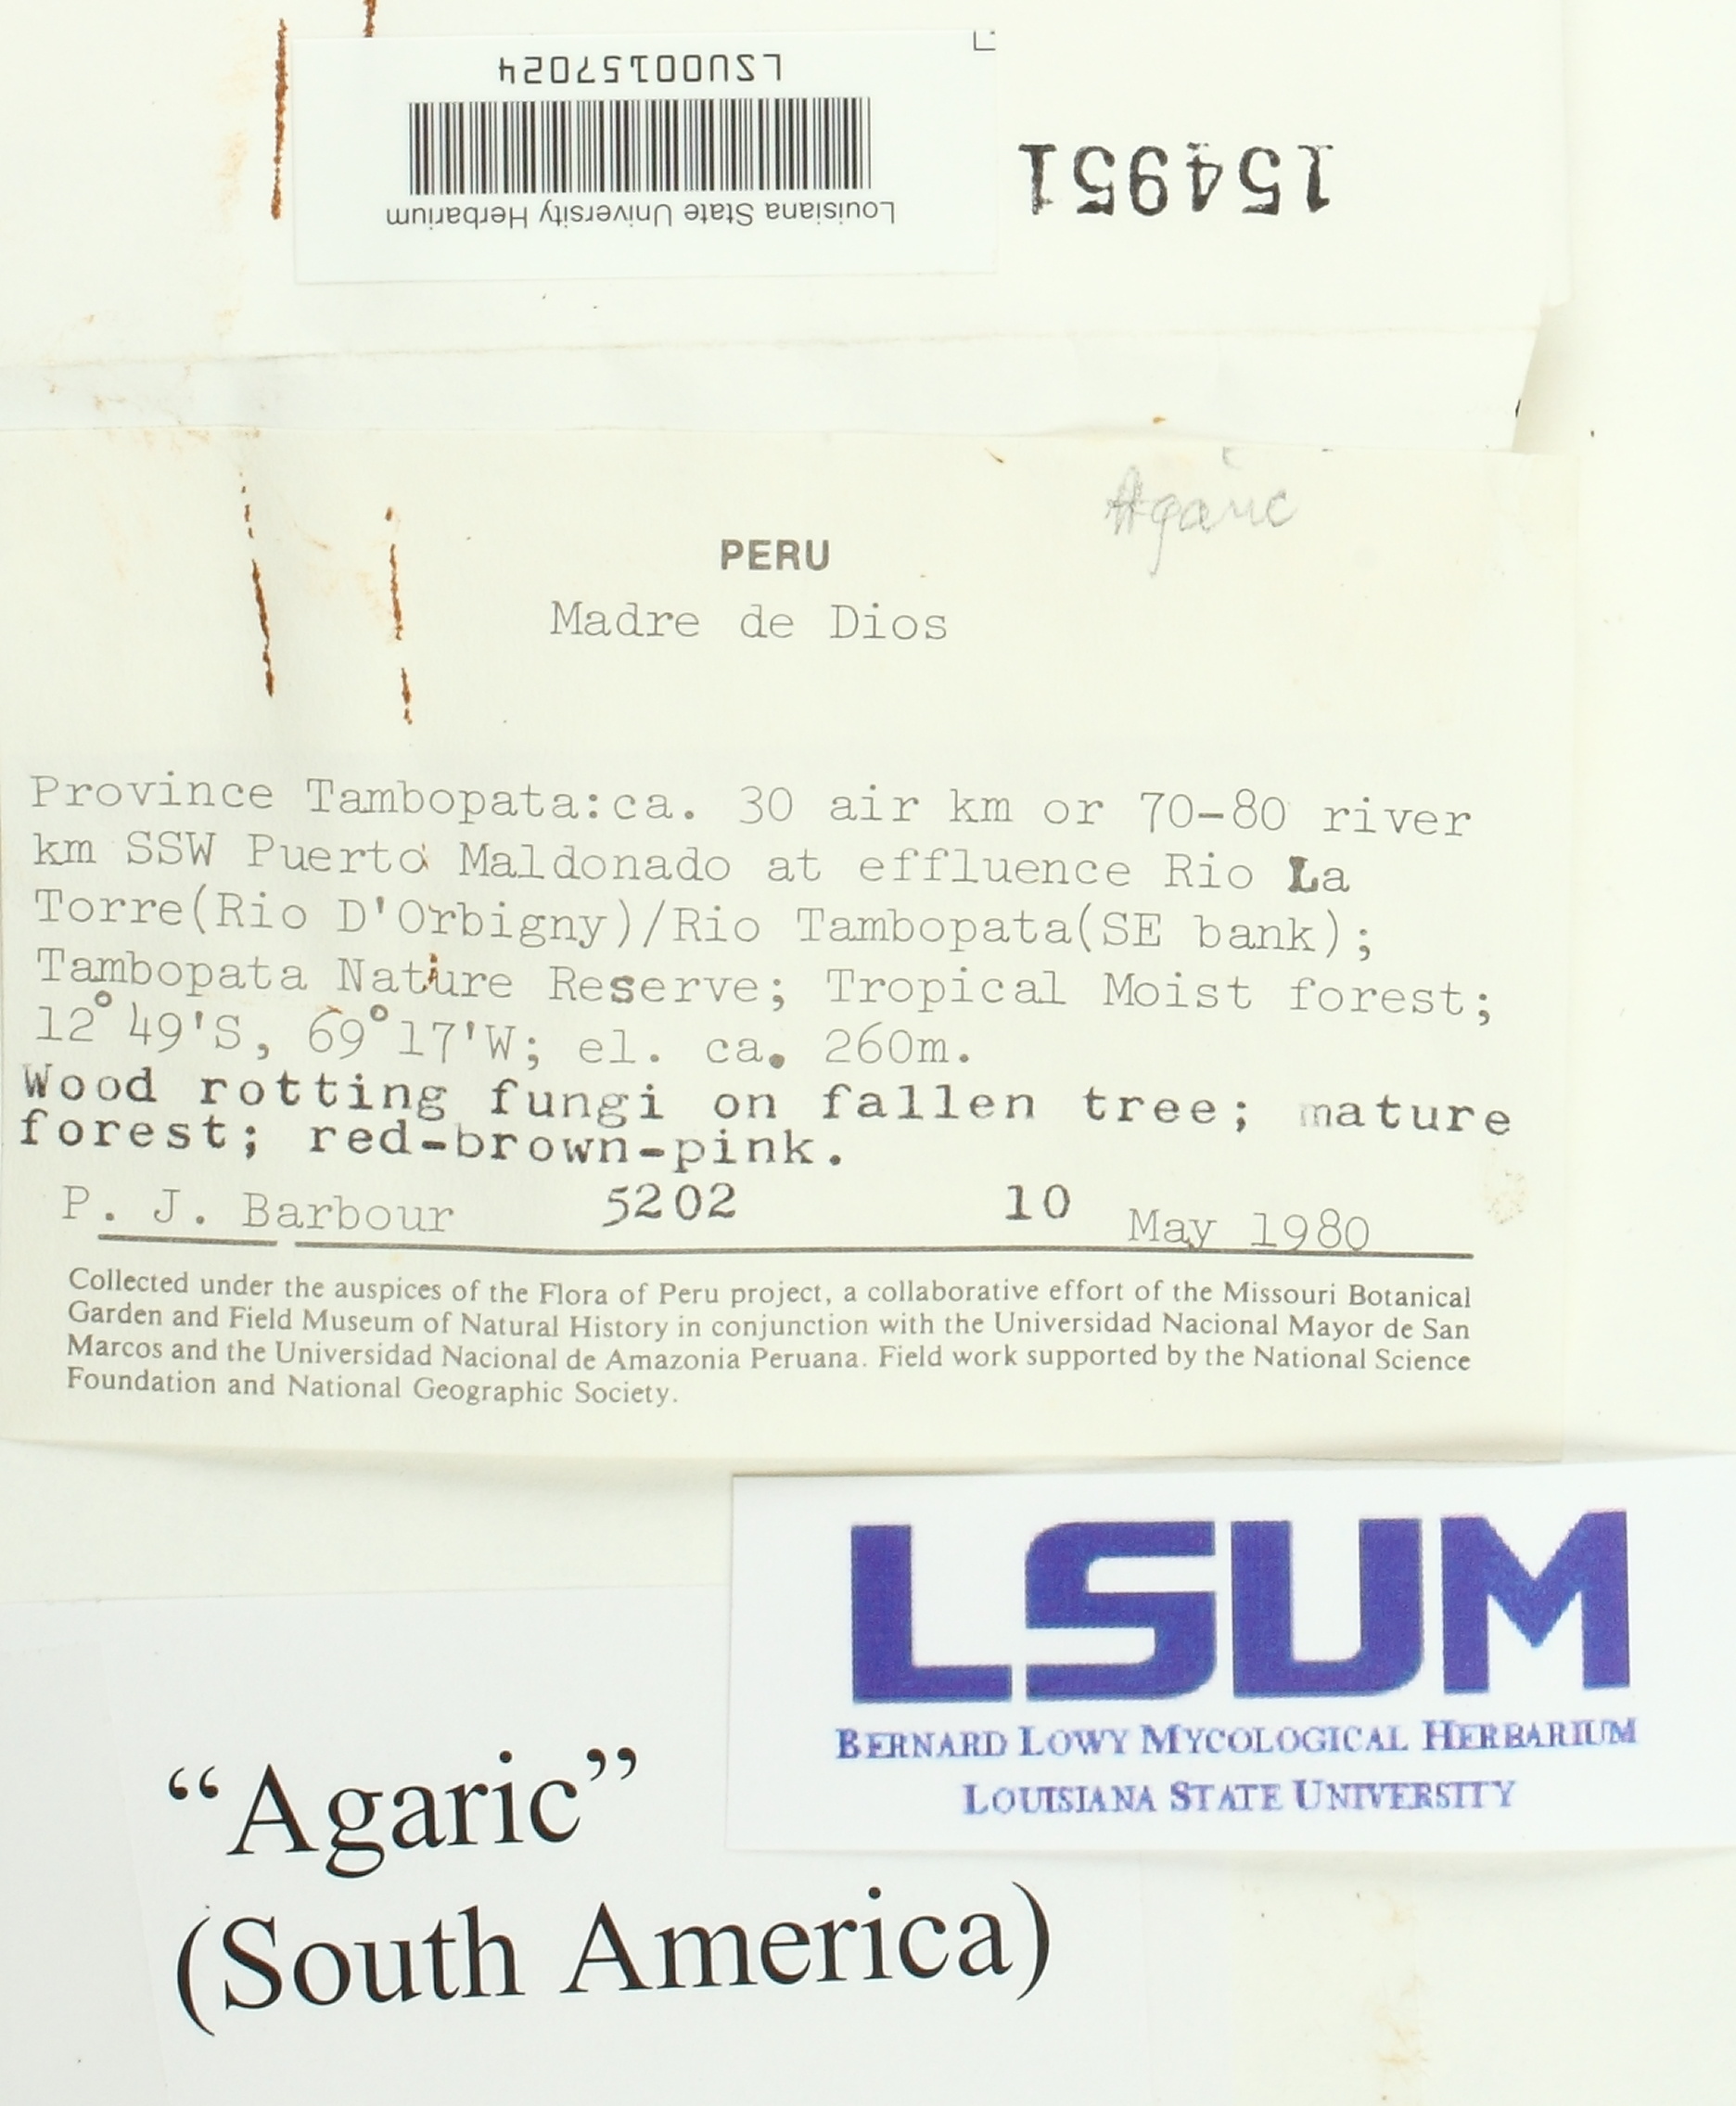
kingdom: Fungi
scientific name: Fungi
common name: Fungi
